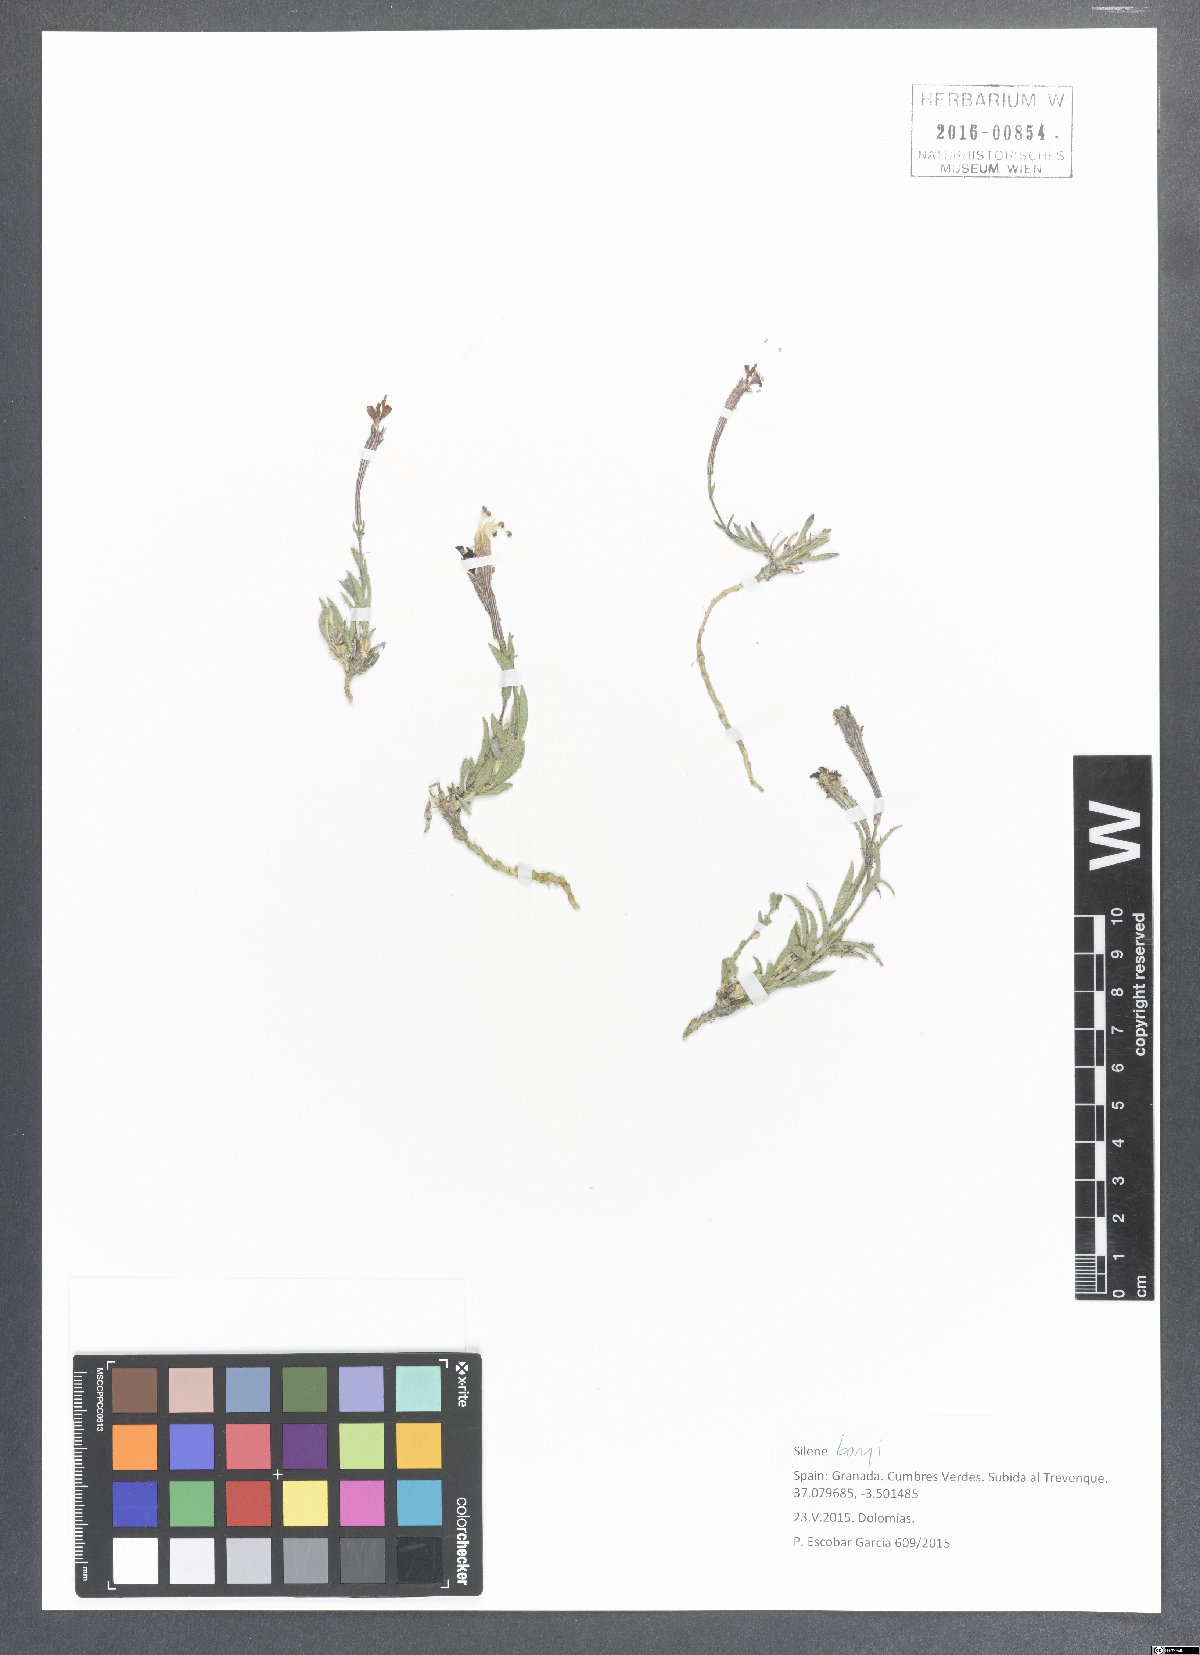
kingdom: Plantae
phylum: Tracheophyta
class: Magnoliopsida
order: Caryophyllales
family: Caryophyllaceae
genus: Silene
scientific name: Silene boryi
